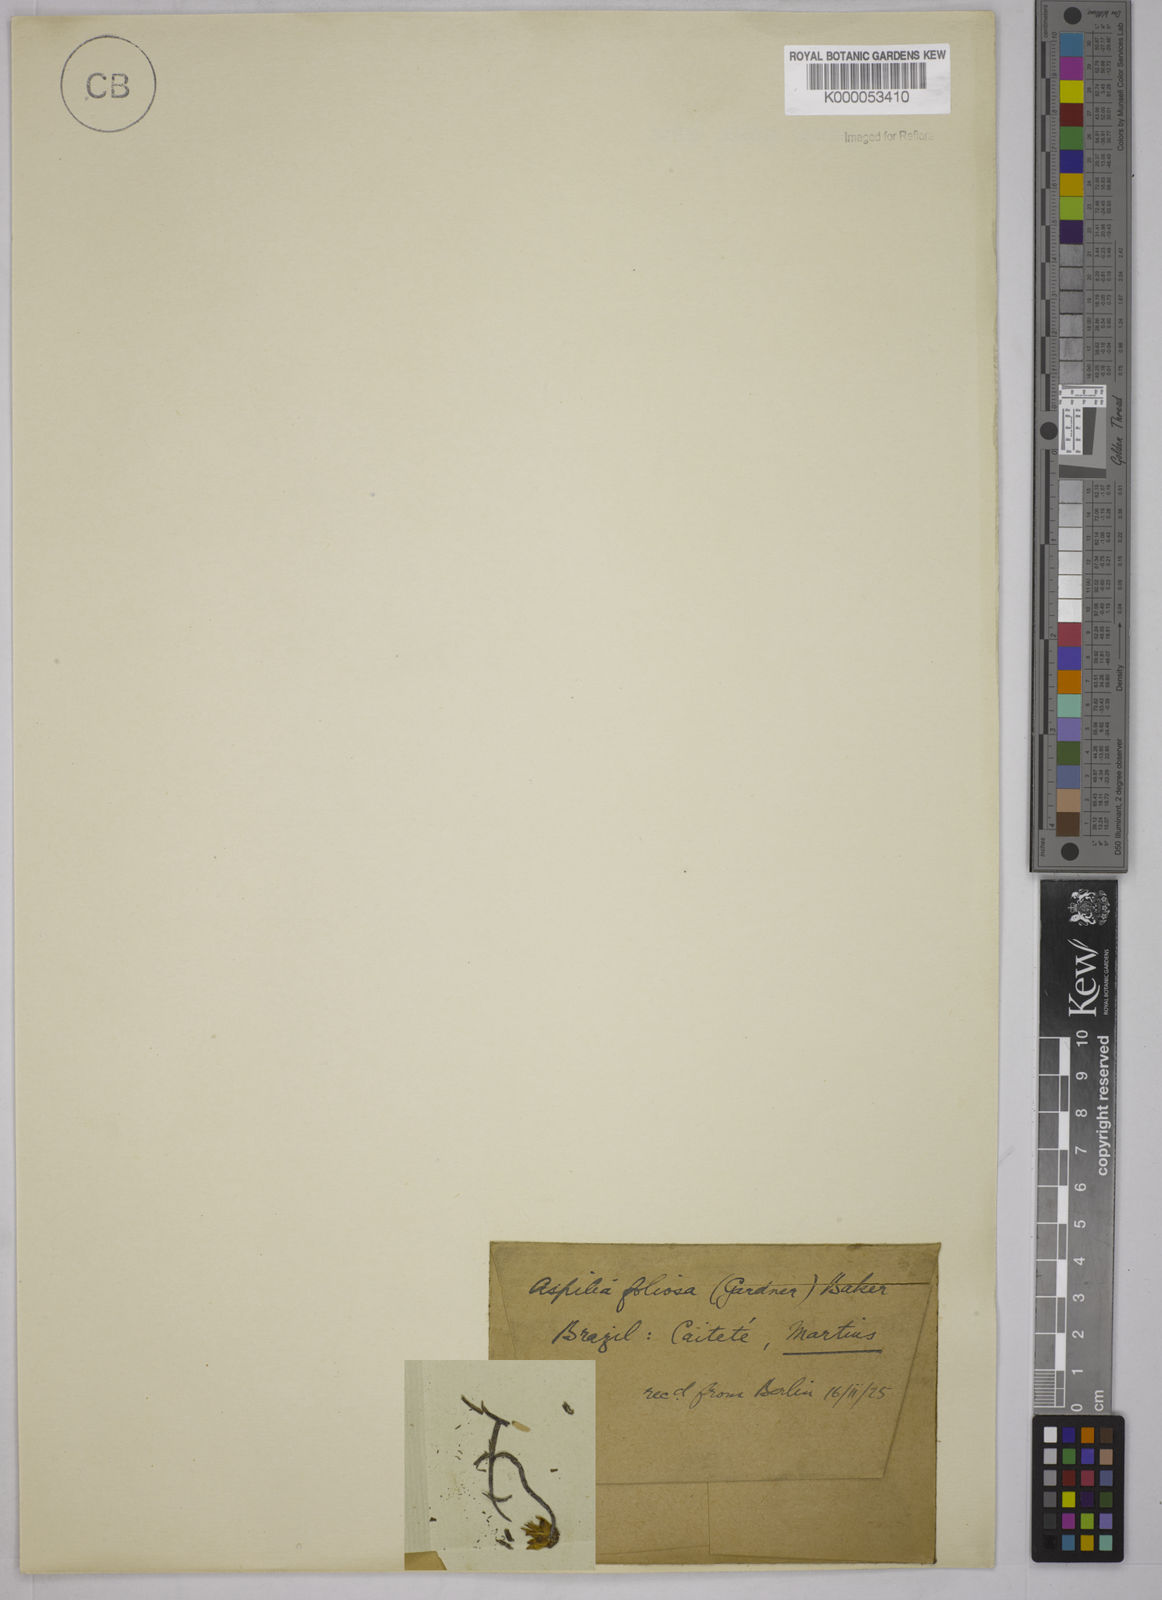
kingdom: Plantae
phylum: Tracheophyta
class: Magnoliopsida
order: Asterales
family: Asteraceae
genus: Aspilia
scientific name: Aspilia
